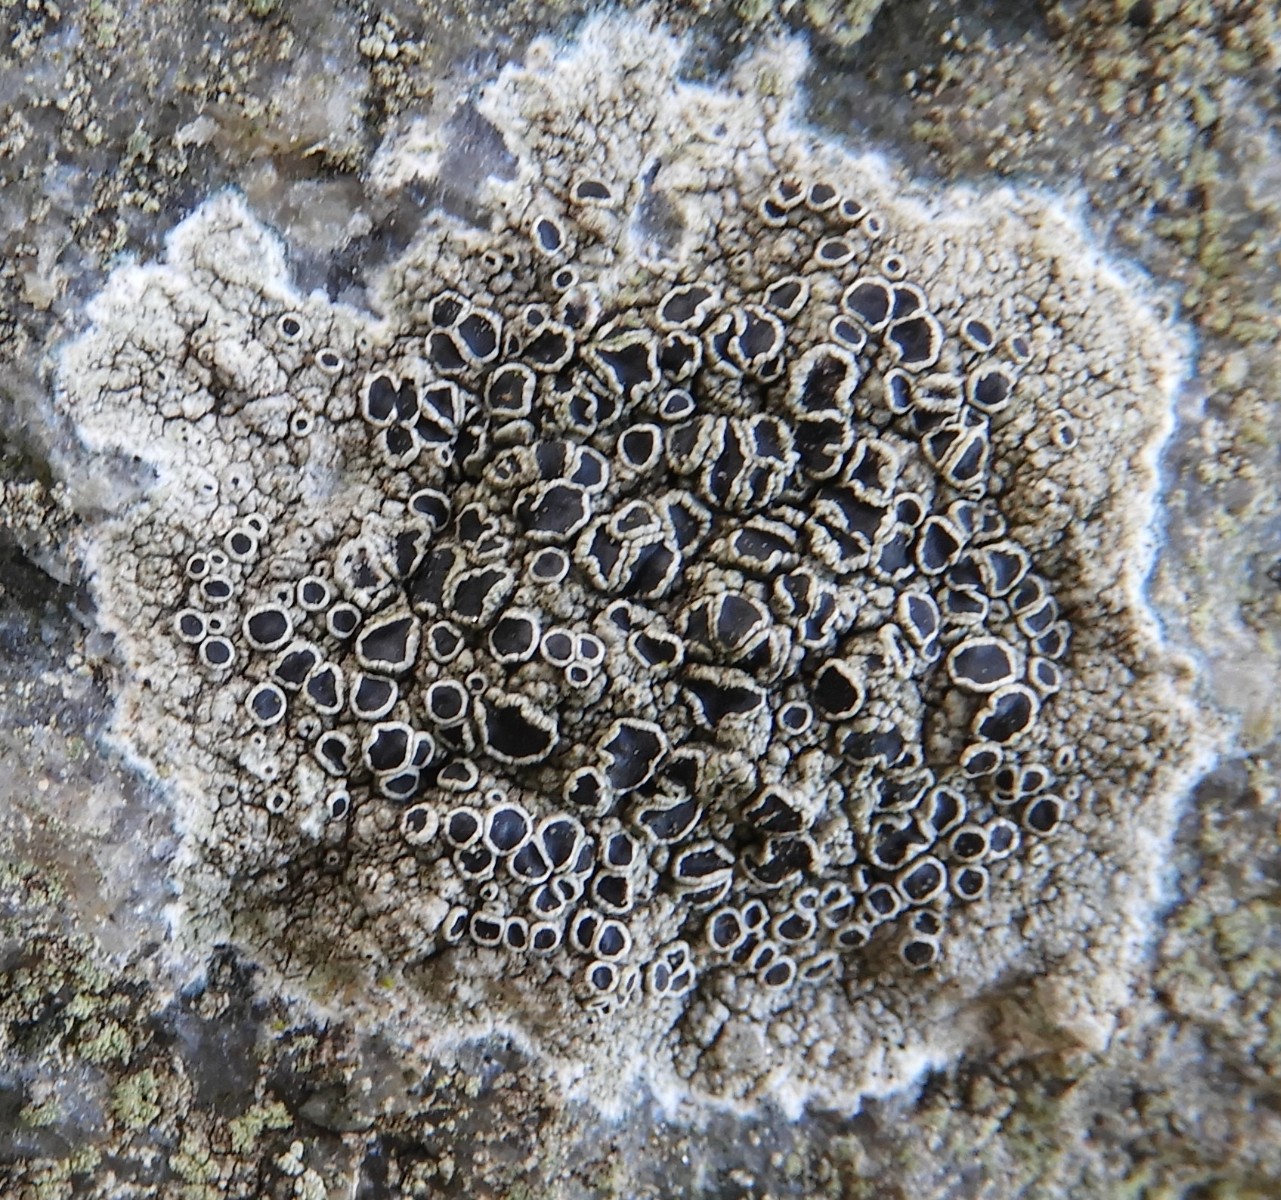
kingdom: Fungi
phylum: Ascomycota
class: Lecanoromycetes
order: Lecanorales
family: Tephromelataceae
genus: Tephromela
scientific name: Tephromela atra
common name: sortfrugtet kantskivelav
